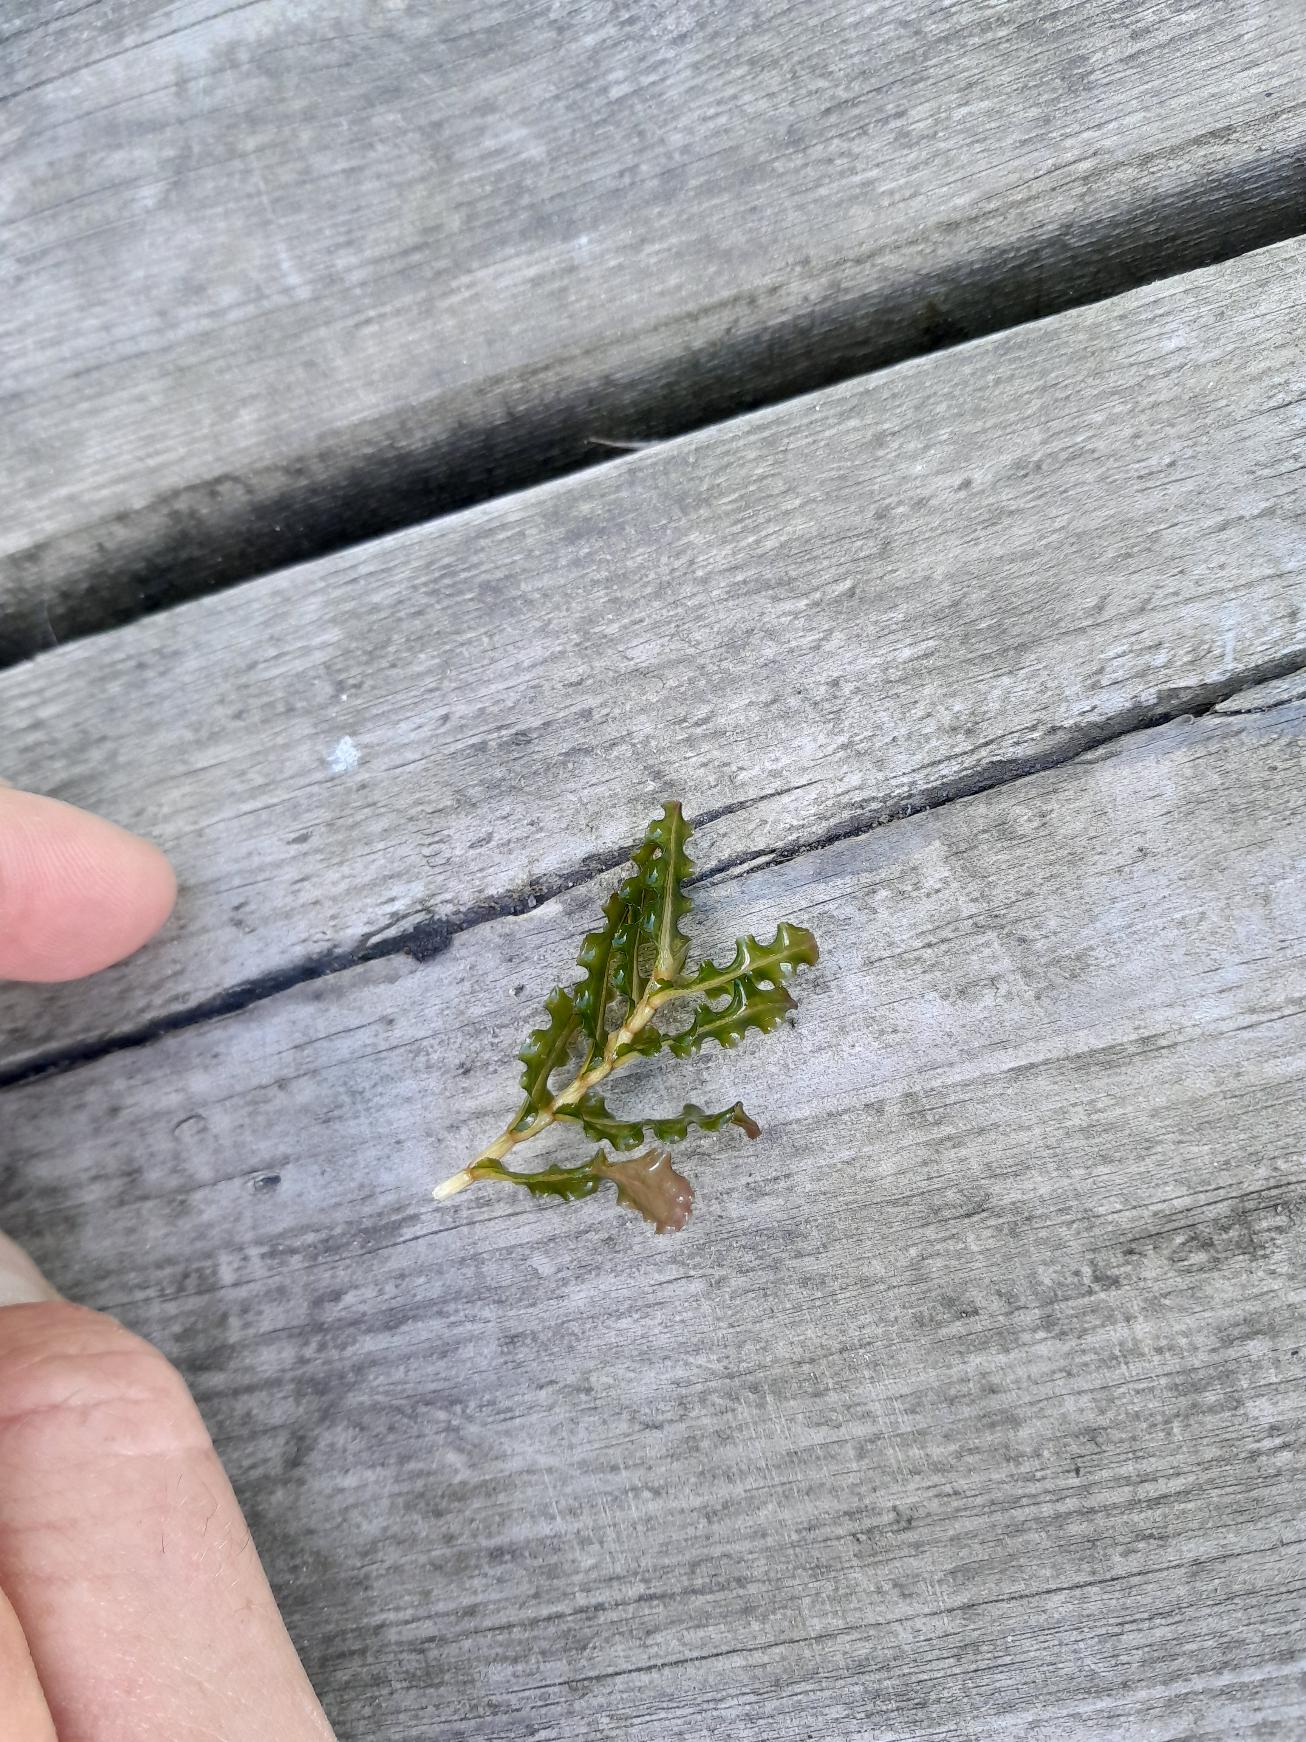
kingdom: Plantae
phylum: Tracheophyta
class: Liliopsida
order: Alismatales
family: Potamogetonaceae
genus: Potamogeton
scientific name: Potamogeton crispus
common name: Kruset vandaks
